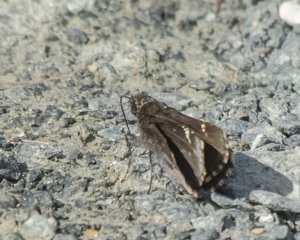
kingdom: Animalia
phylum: Arthropoda
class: Insecta
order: Lepidoptera
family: Hesperiidae
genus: Mastor
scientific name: Mastor vialis
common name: Common Roadside-Skipper
